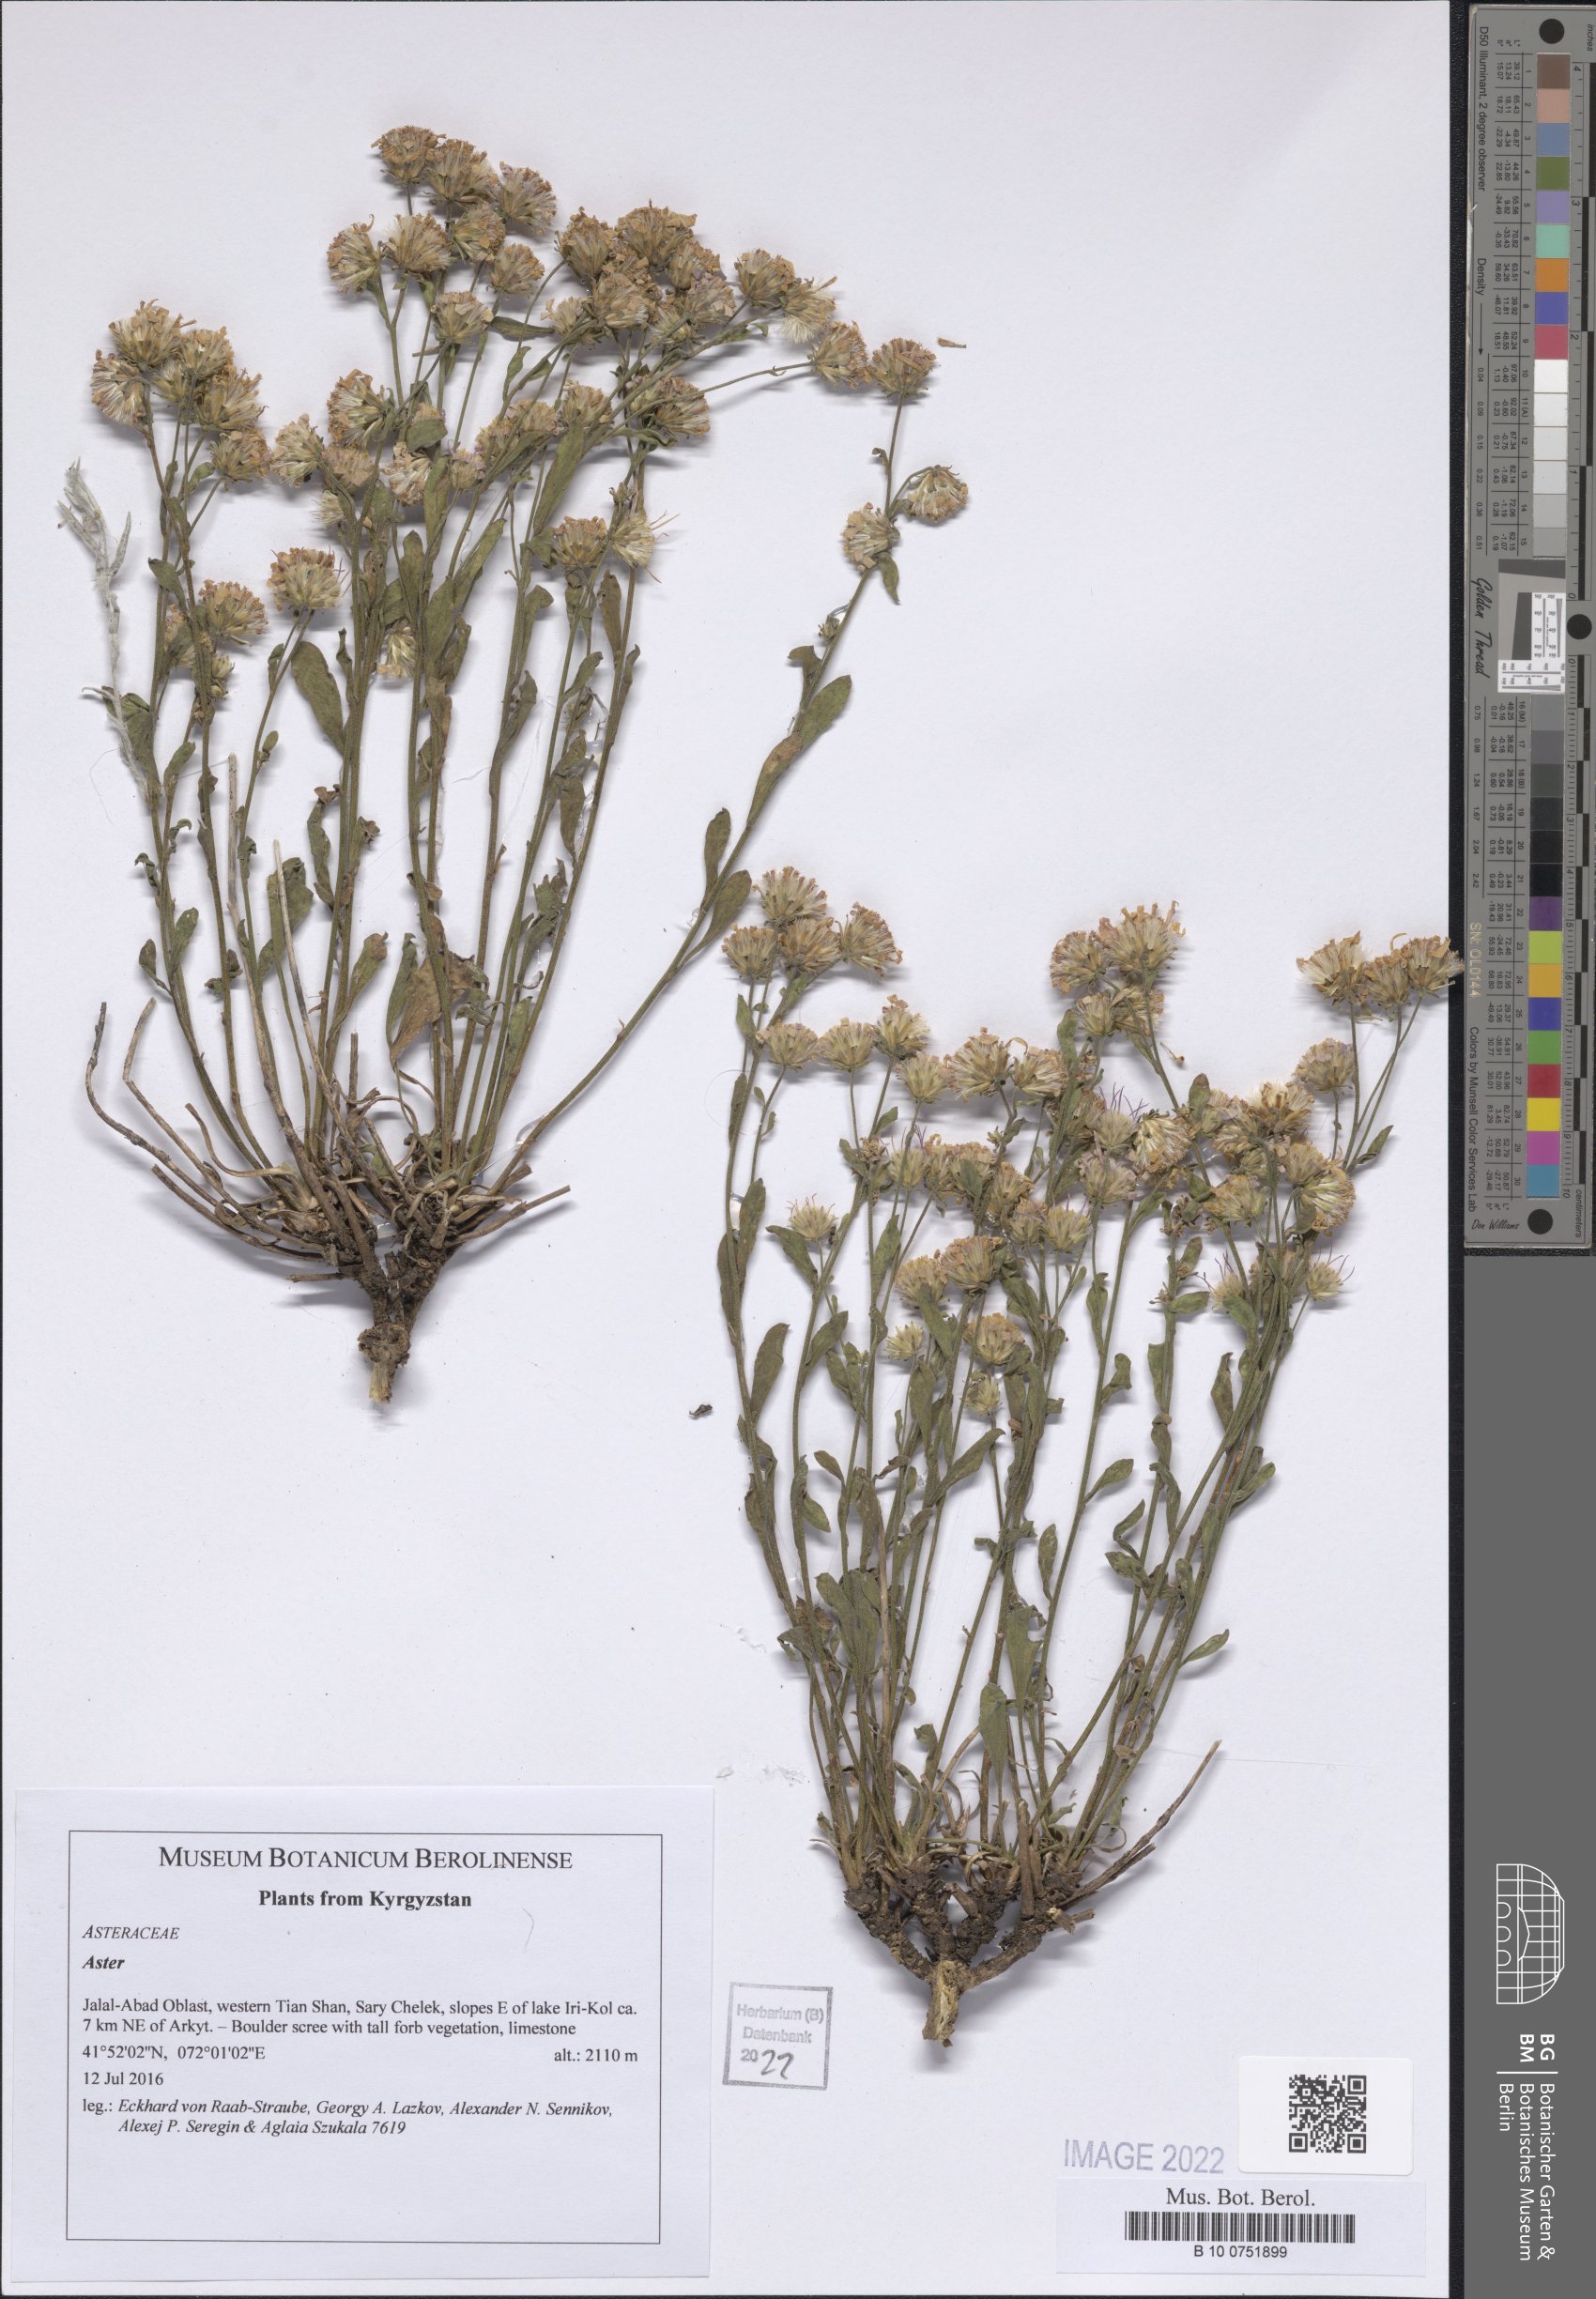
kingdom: Plantae
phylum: Tracheophyta
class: Magnoliopsida
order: Asterales
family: Asteraceae
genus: Aster
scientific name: Aster
